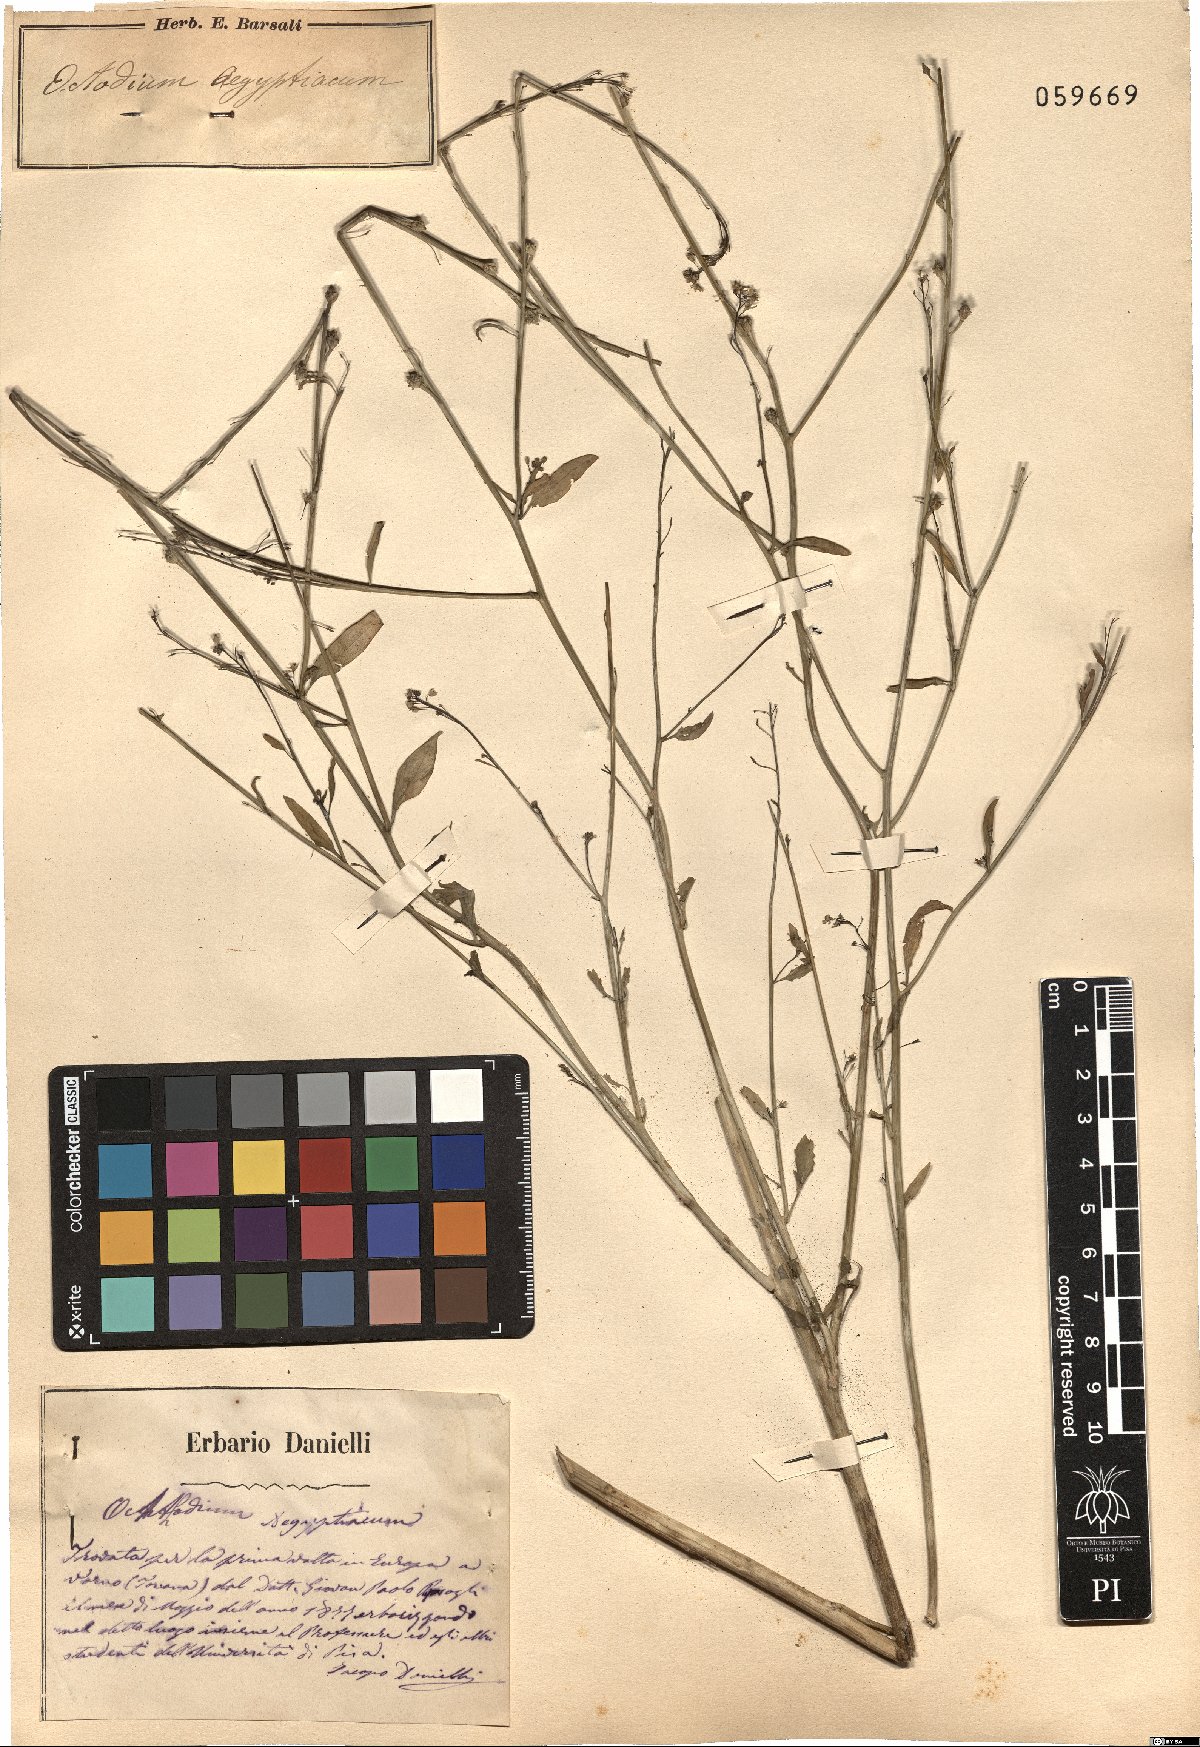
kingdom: Plantae
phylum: Tracheophyta
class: Magnoliopsida
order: Brassicales
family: Brassicaceae
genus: Ochthodium
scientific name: Ochthodium aegyptiacum
